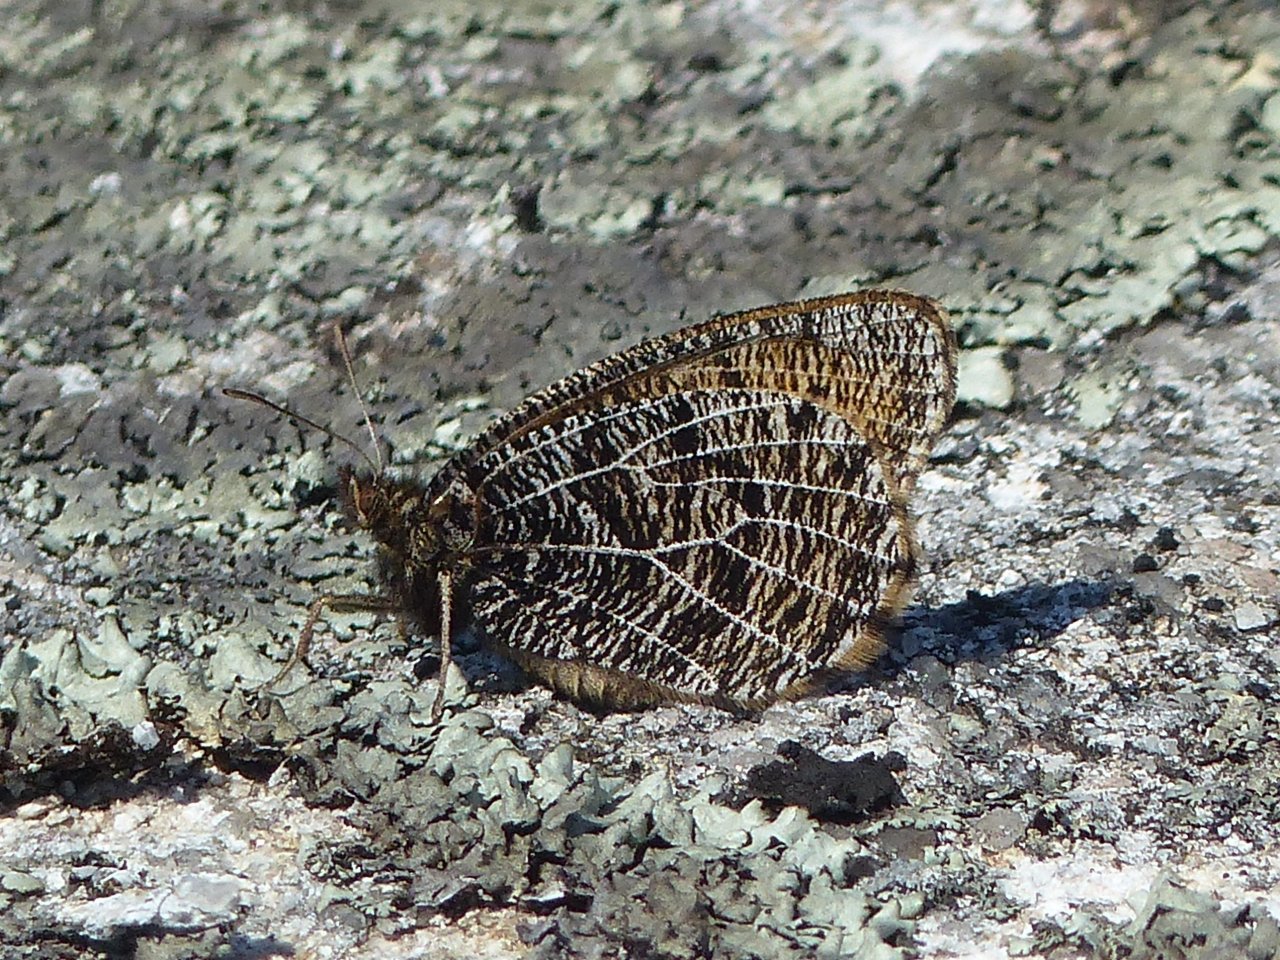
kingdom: Animalia
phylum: Arthropoda
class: Insecta
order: Lepidoptera
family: Nymphalidae
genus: Oeneis
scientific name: Oeneis chryxus
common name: Chryxus Arctic
